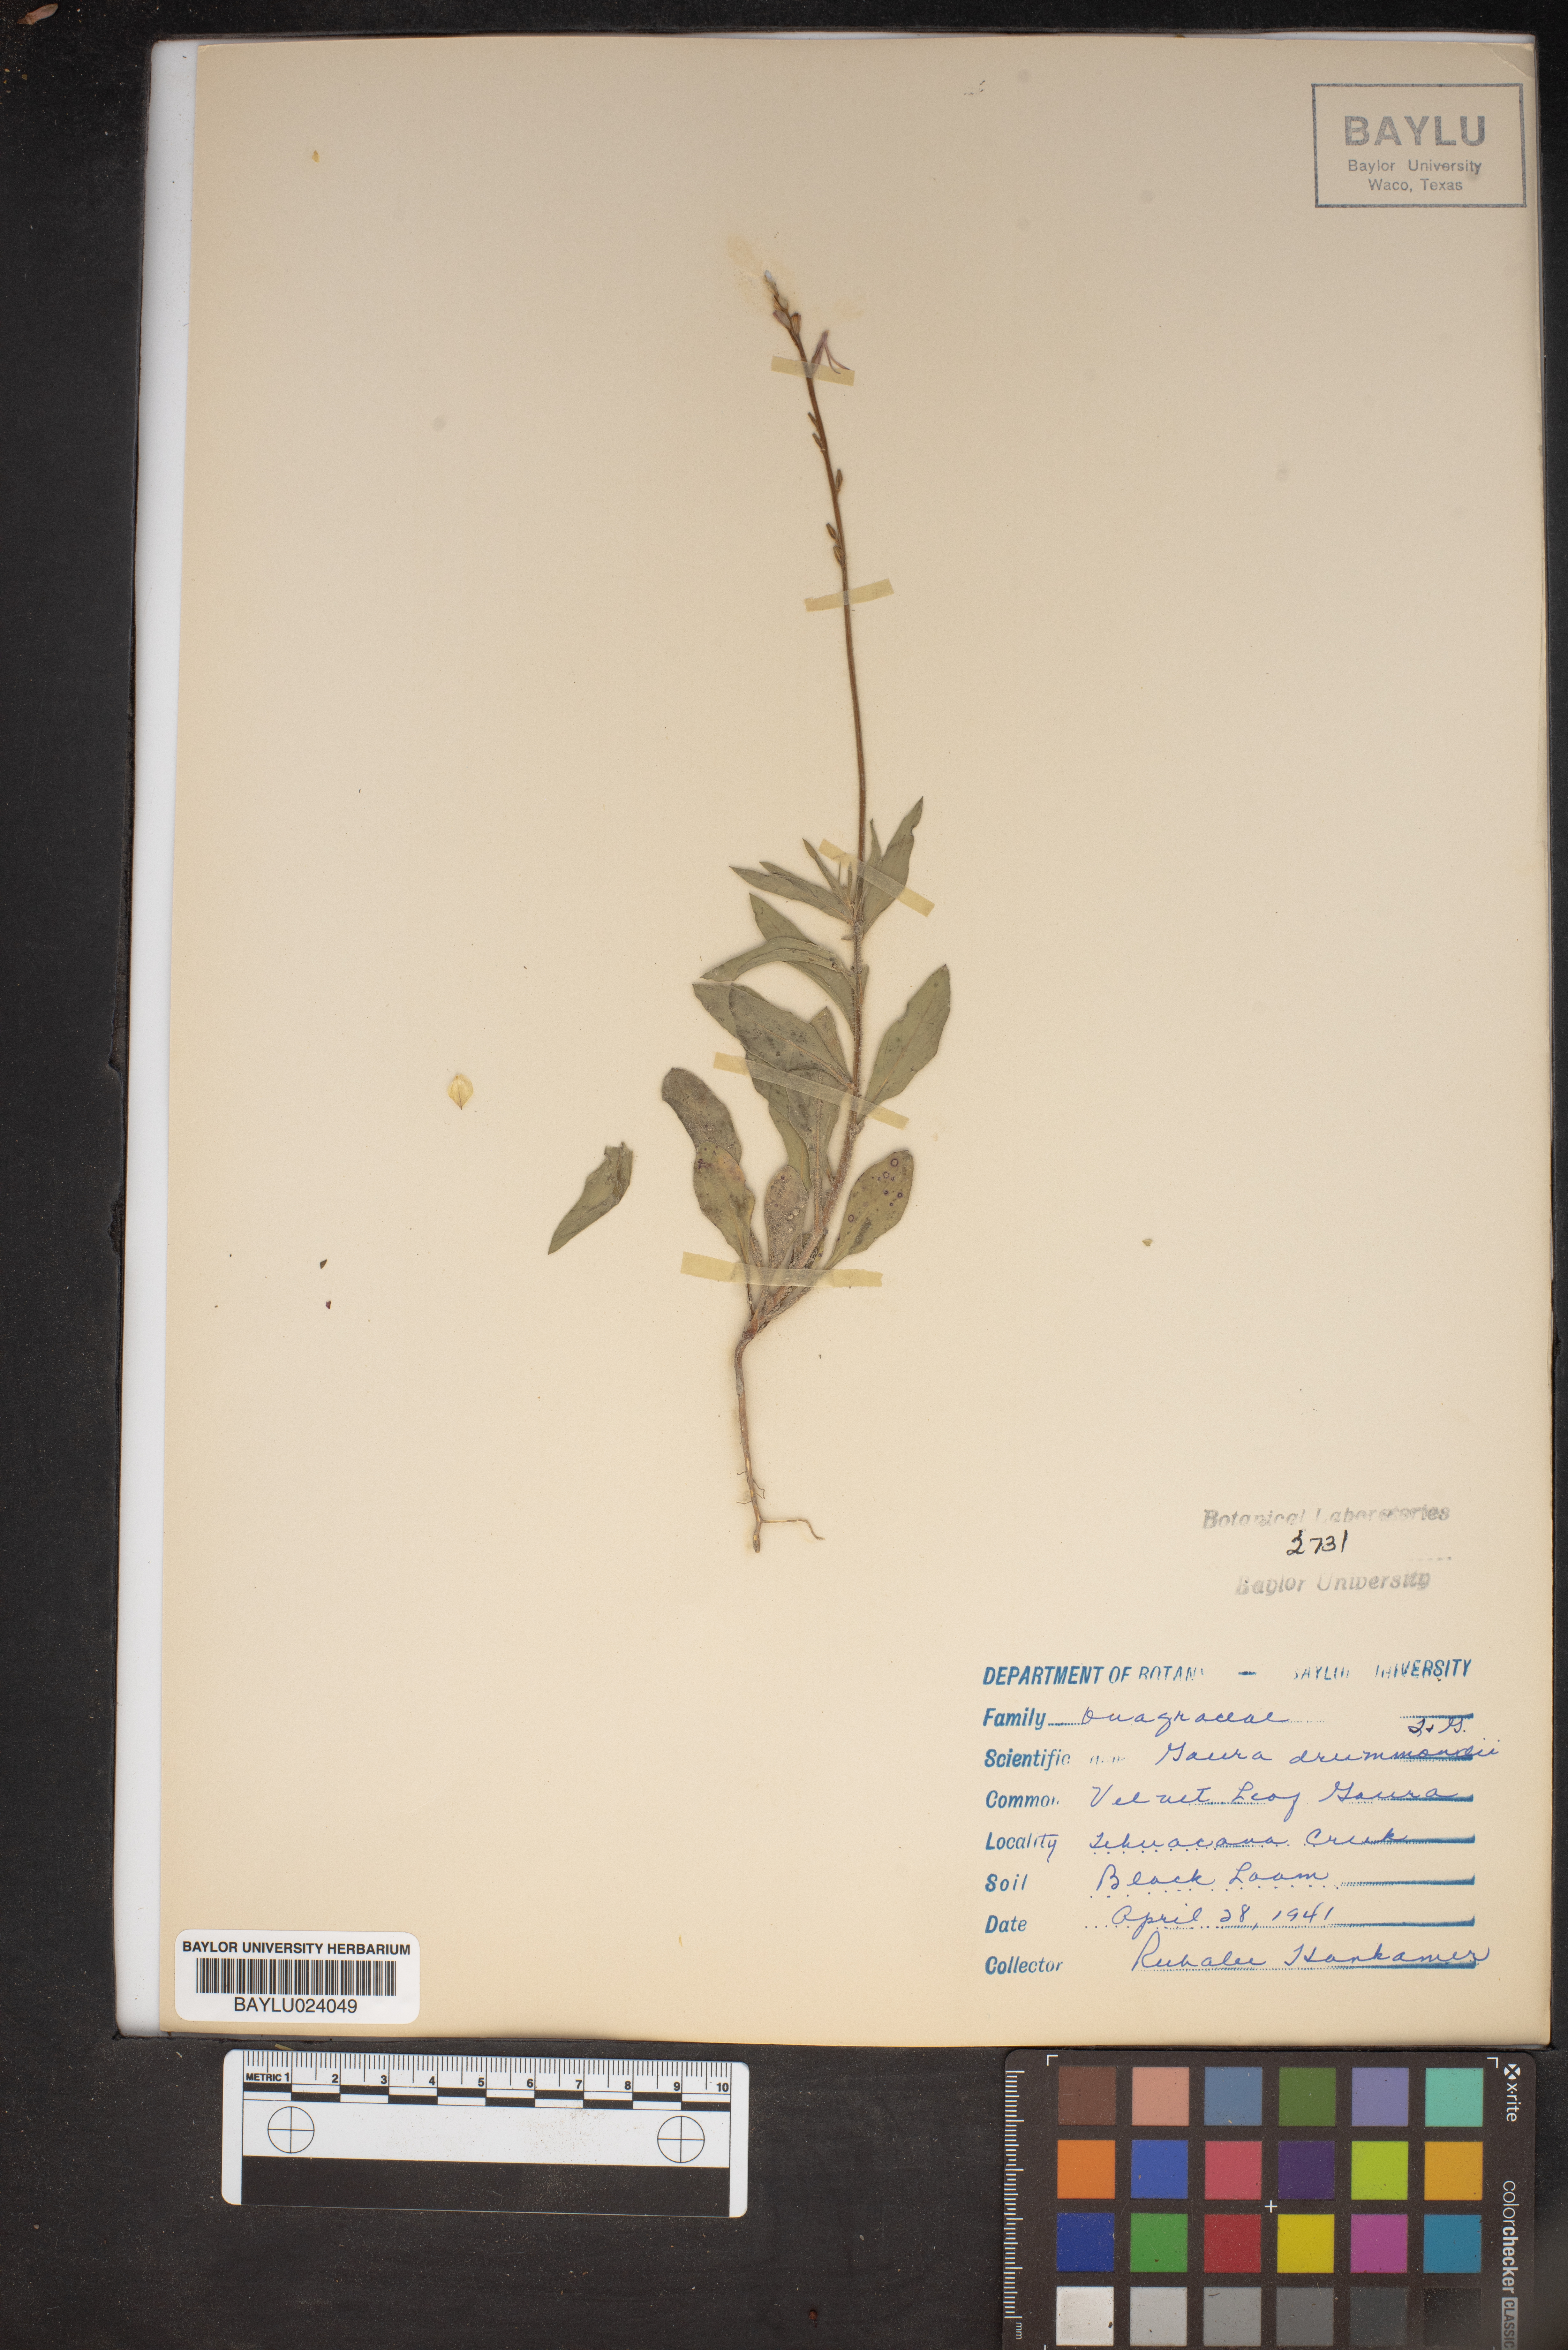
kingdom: Plantae
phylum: Tracheophyta
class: Magnoliopsida
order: Myrtales
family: Onagraceae
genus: Oenothera
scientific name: Oenothera hispida
